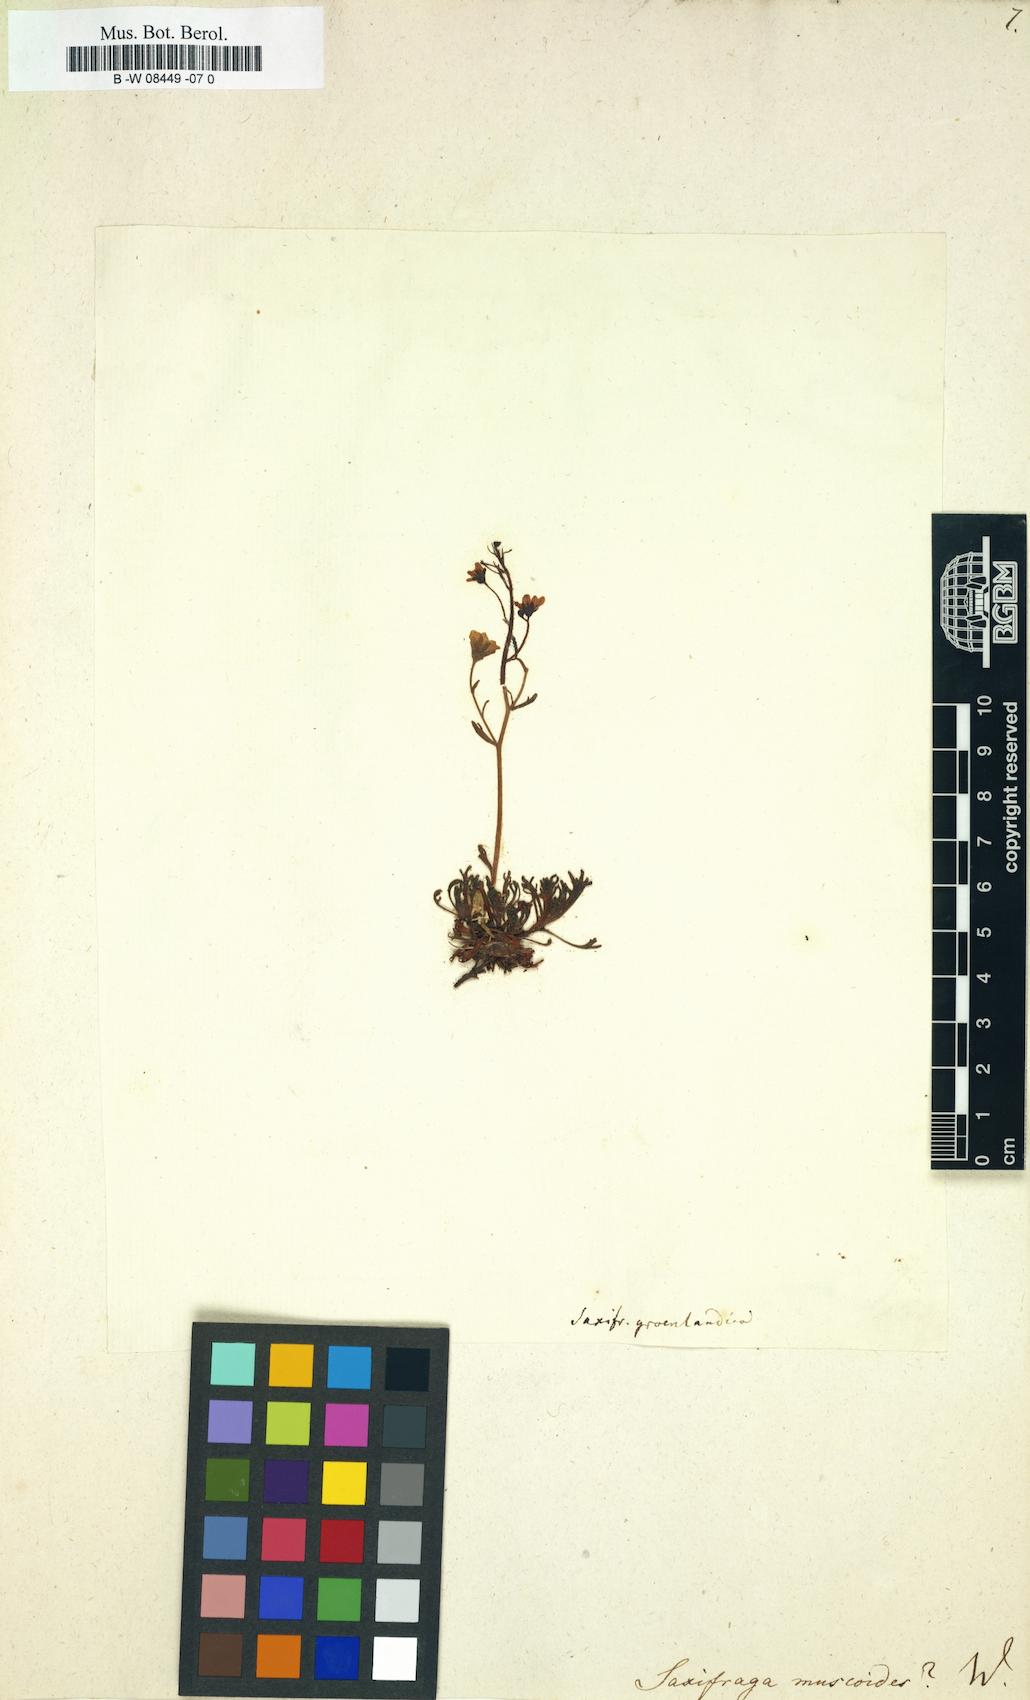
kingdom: Plantae
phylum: Tracheophyta
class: Magnoliopsida
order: Saxifragales
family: Saxifragaceae
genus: Saxifraga
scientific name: Saxifraga muscoides
